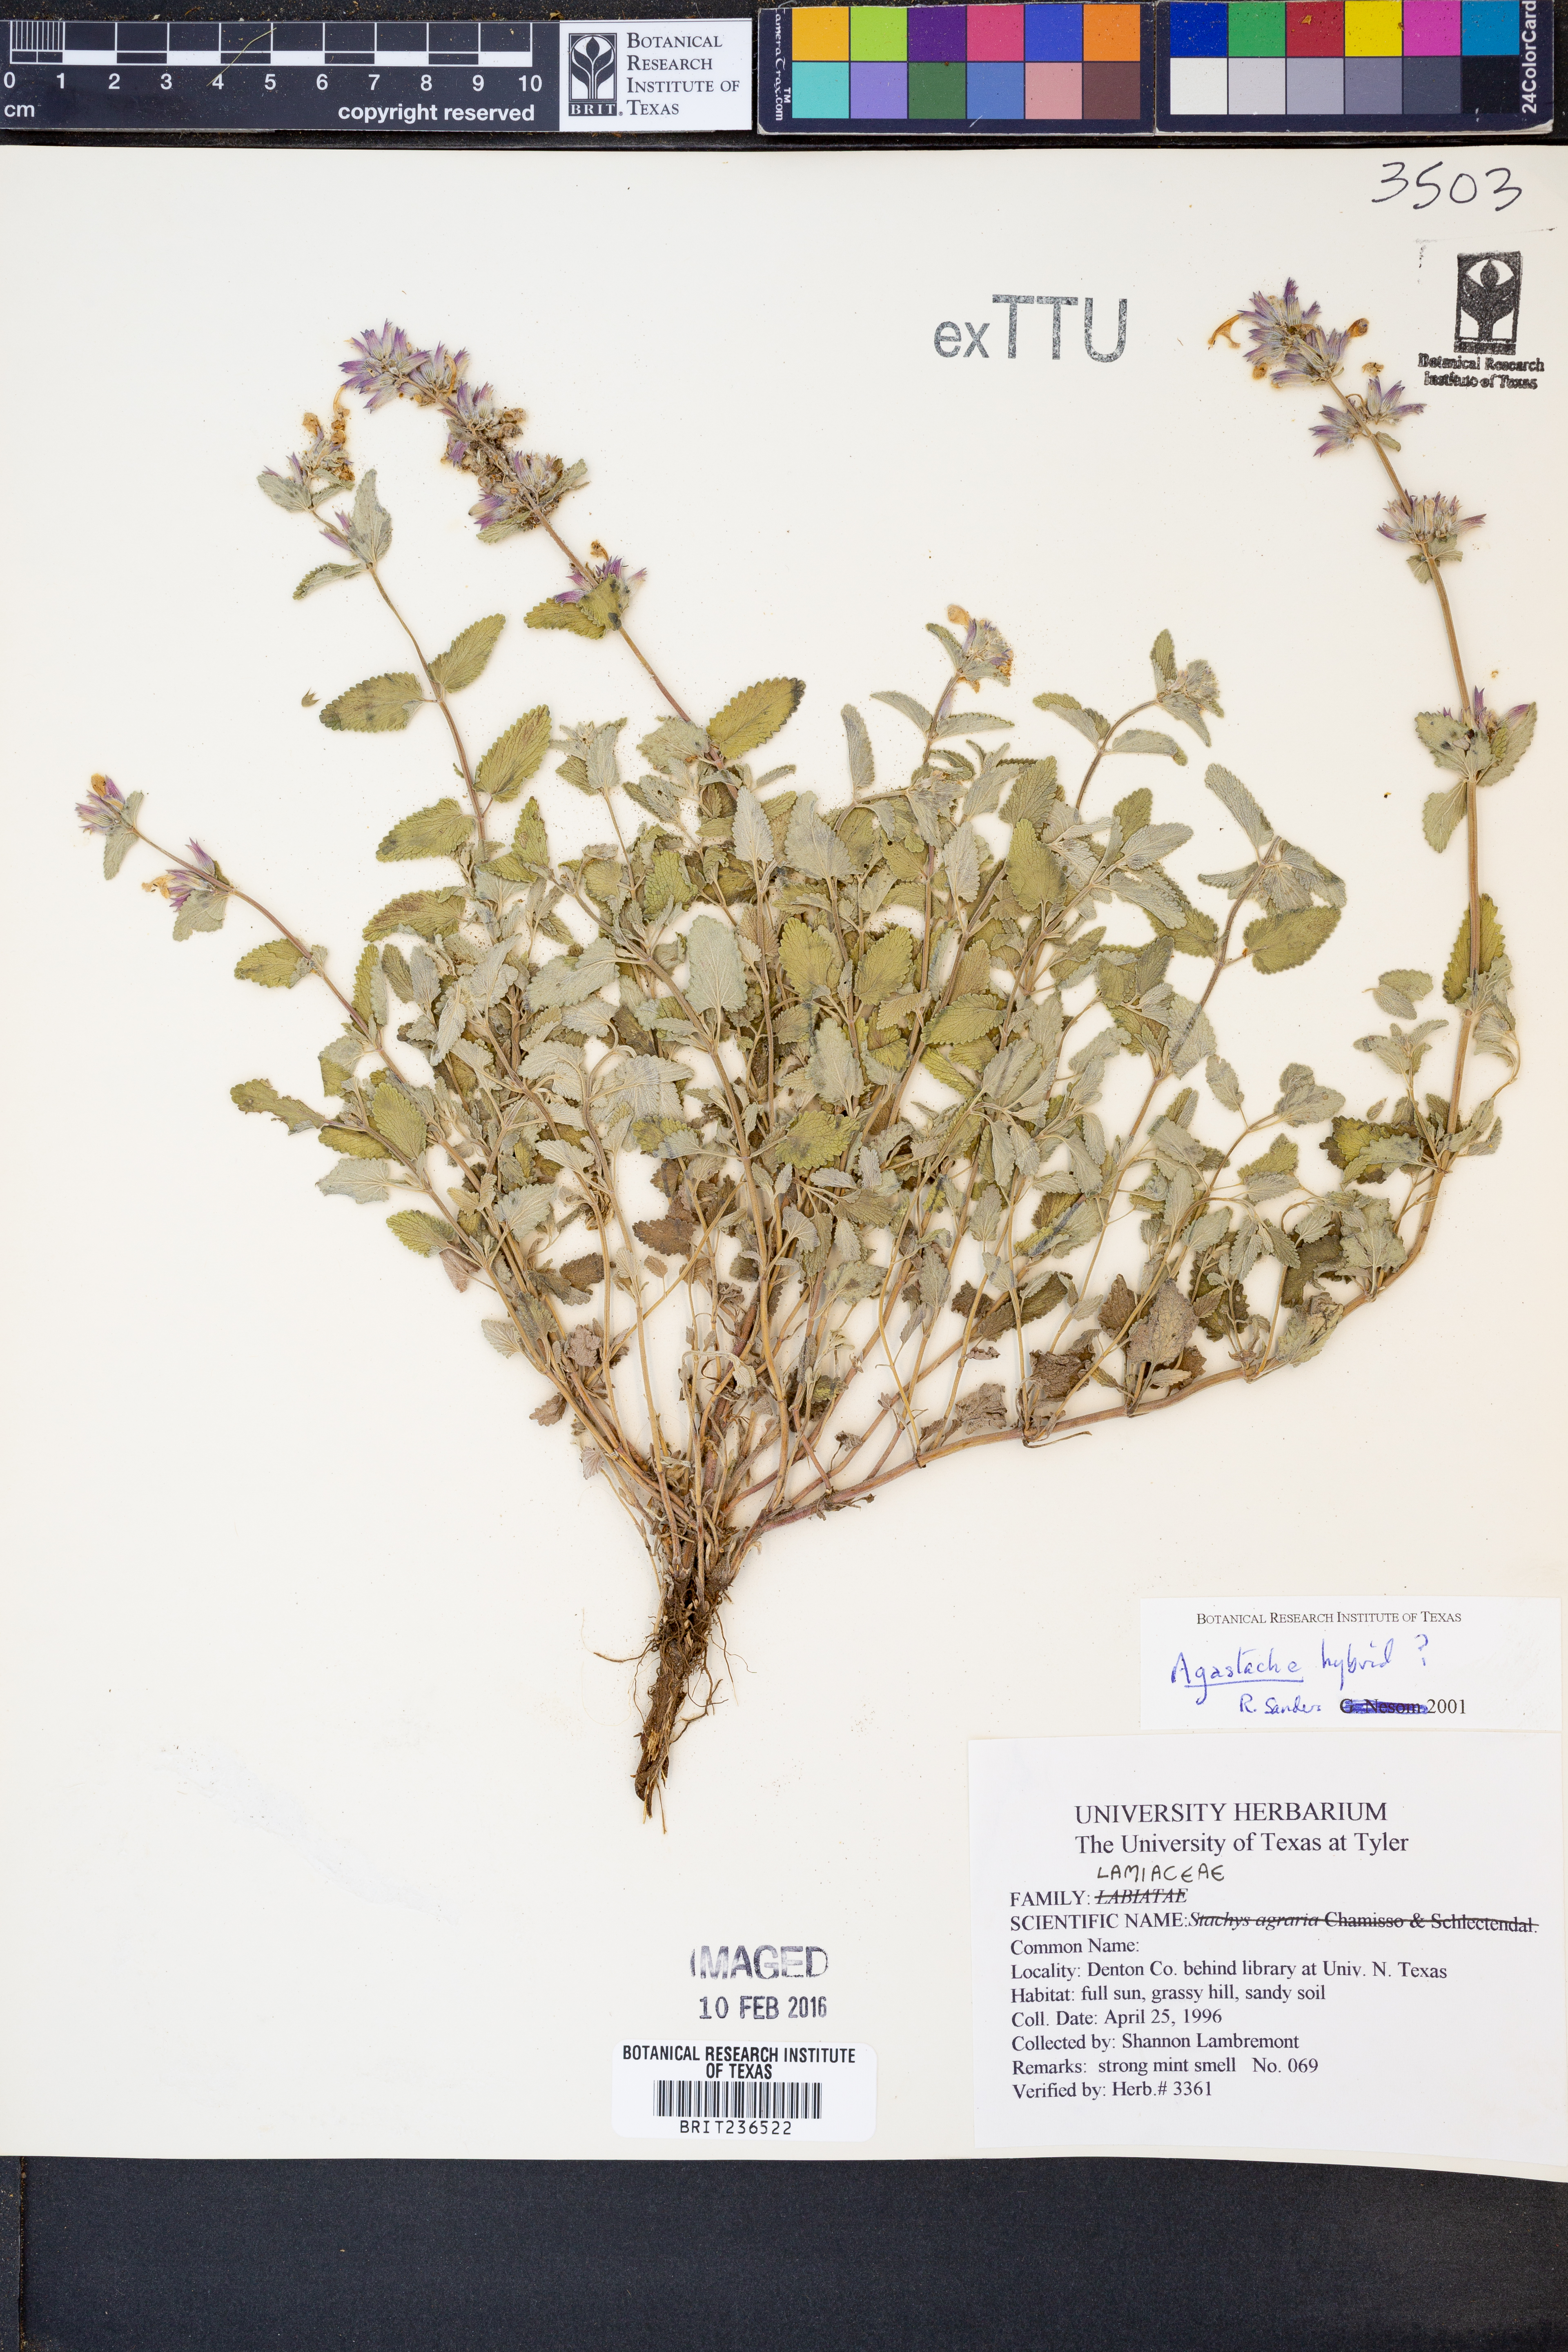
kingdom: Plantae
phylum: Tracheophyta
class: Magnoliopsida
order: Lamiales
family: Lamiaceae
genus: Agastache
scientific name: Agastache
